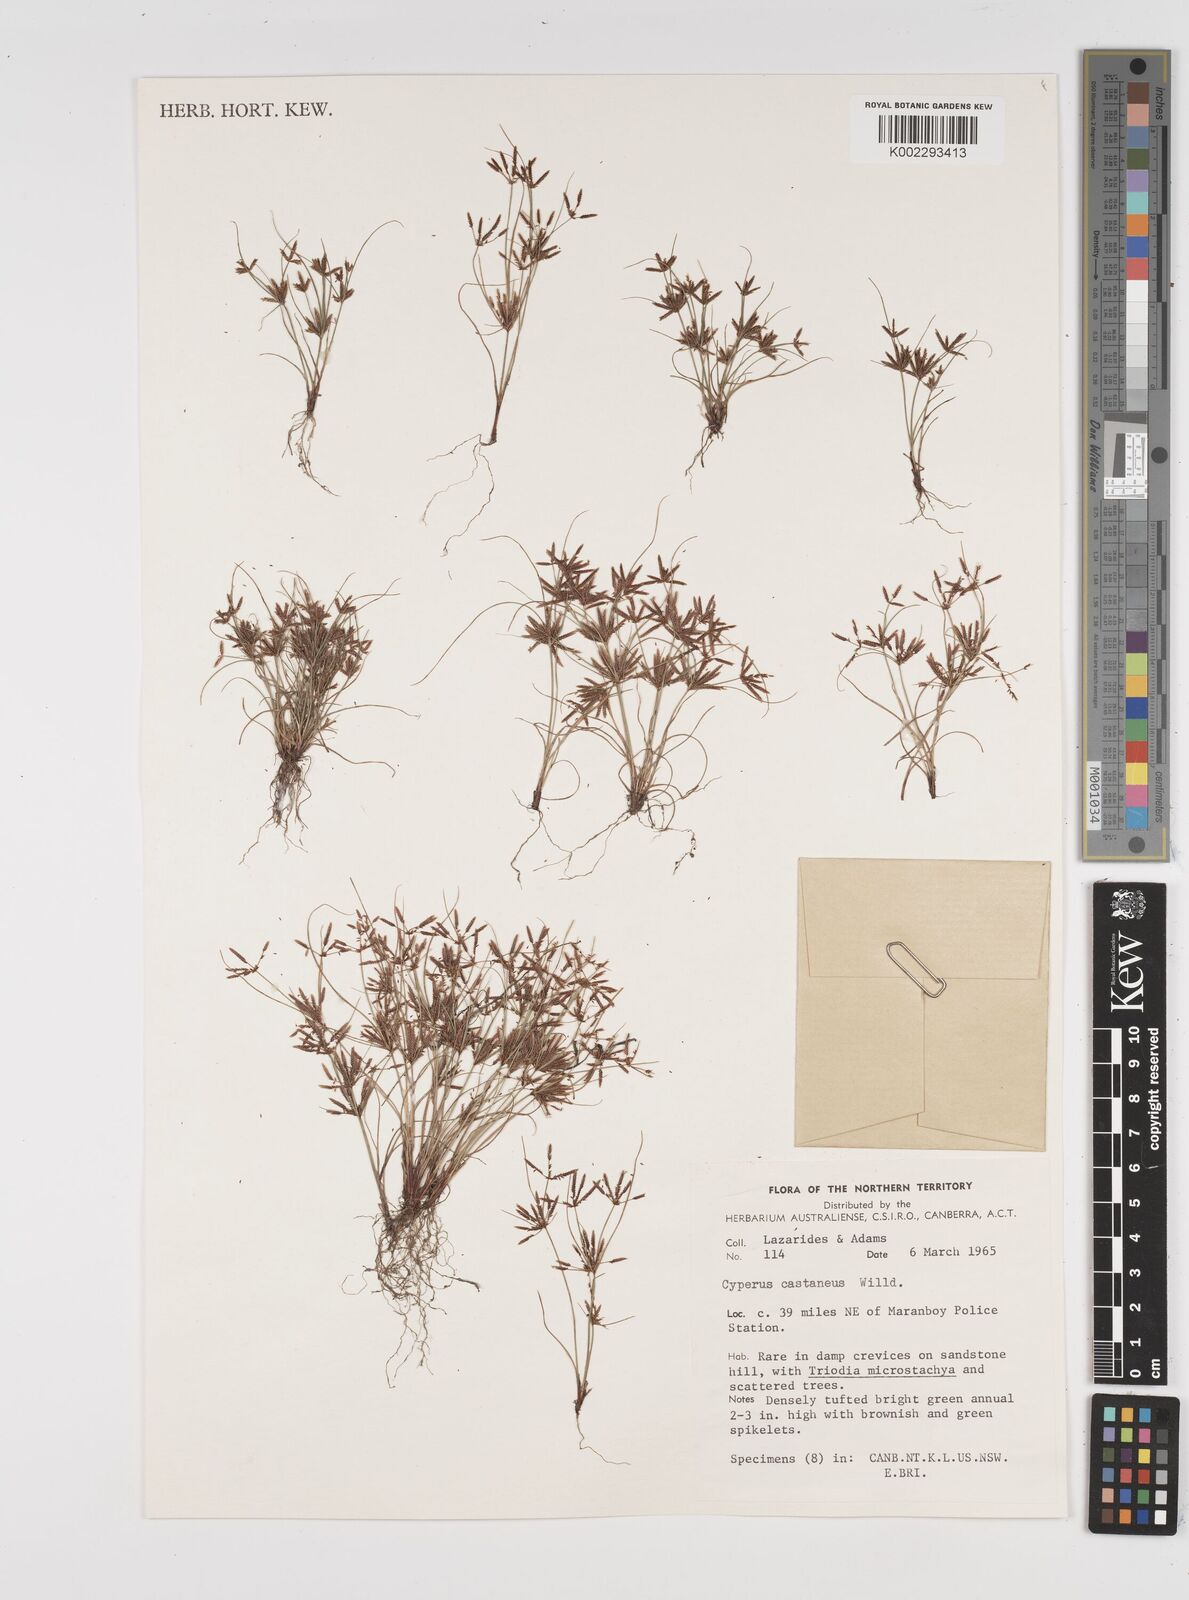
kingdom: Plantae
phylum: Tracheophyta
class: Liliopsida
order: Poales
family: Cyperaceae
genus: Cyperus
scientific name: Cyperus castaneus
